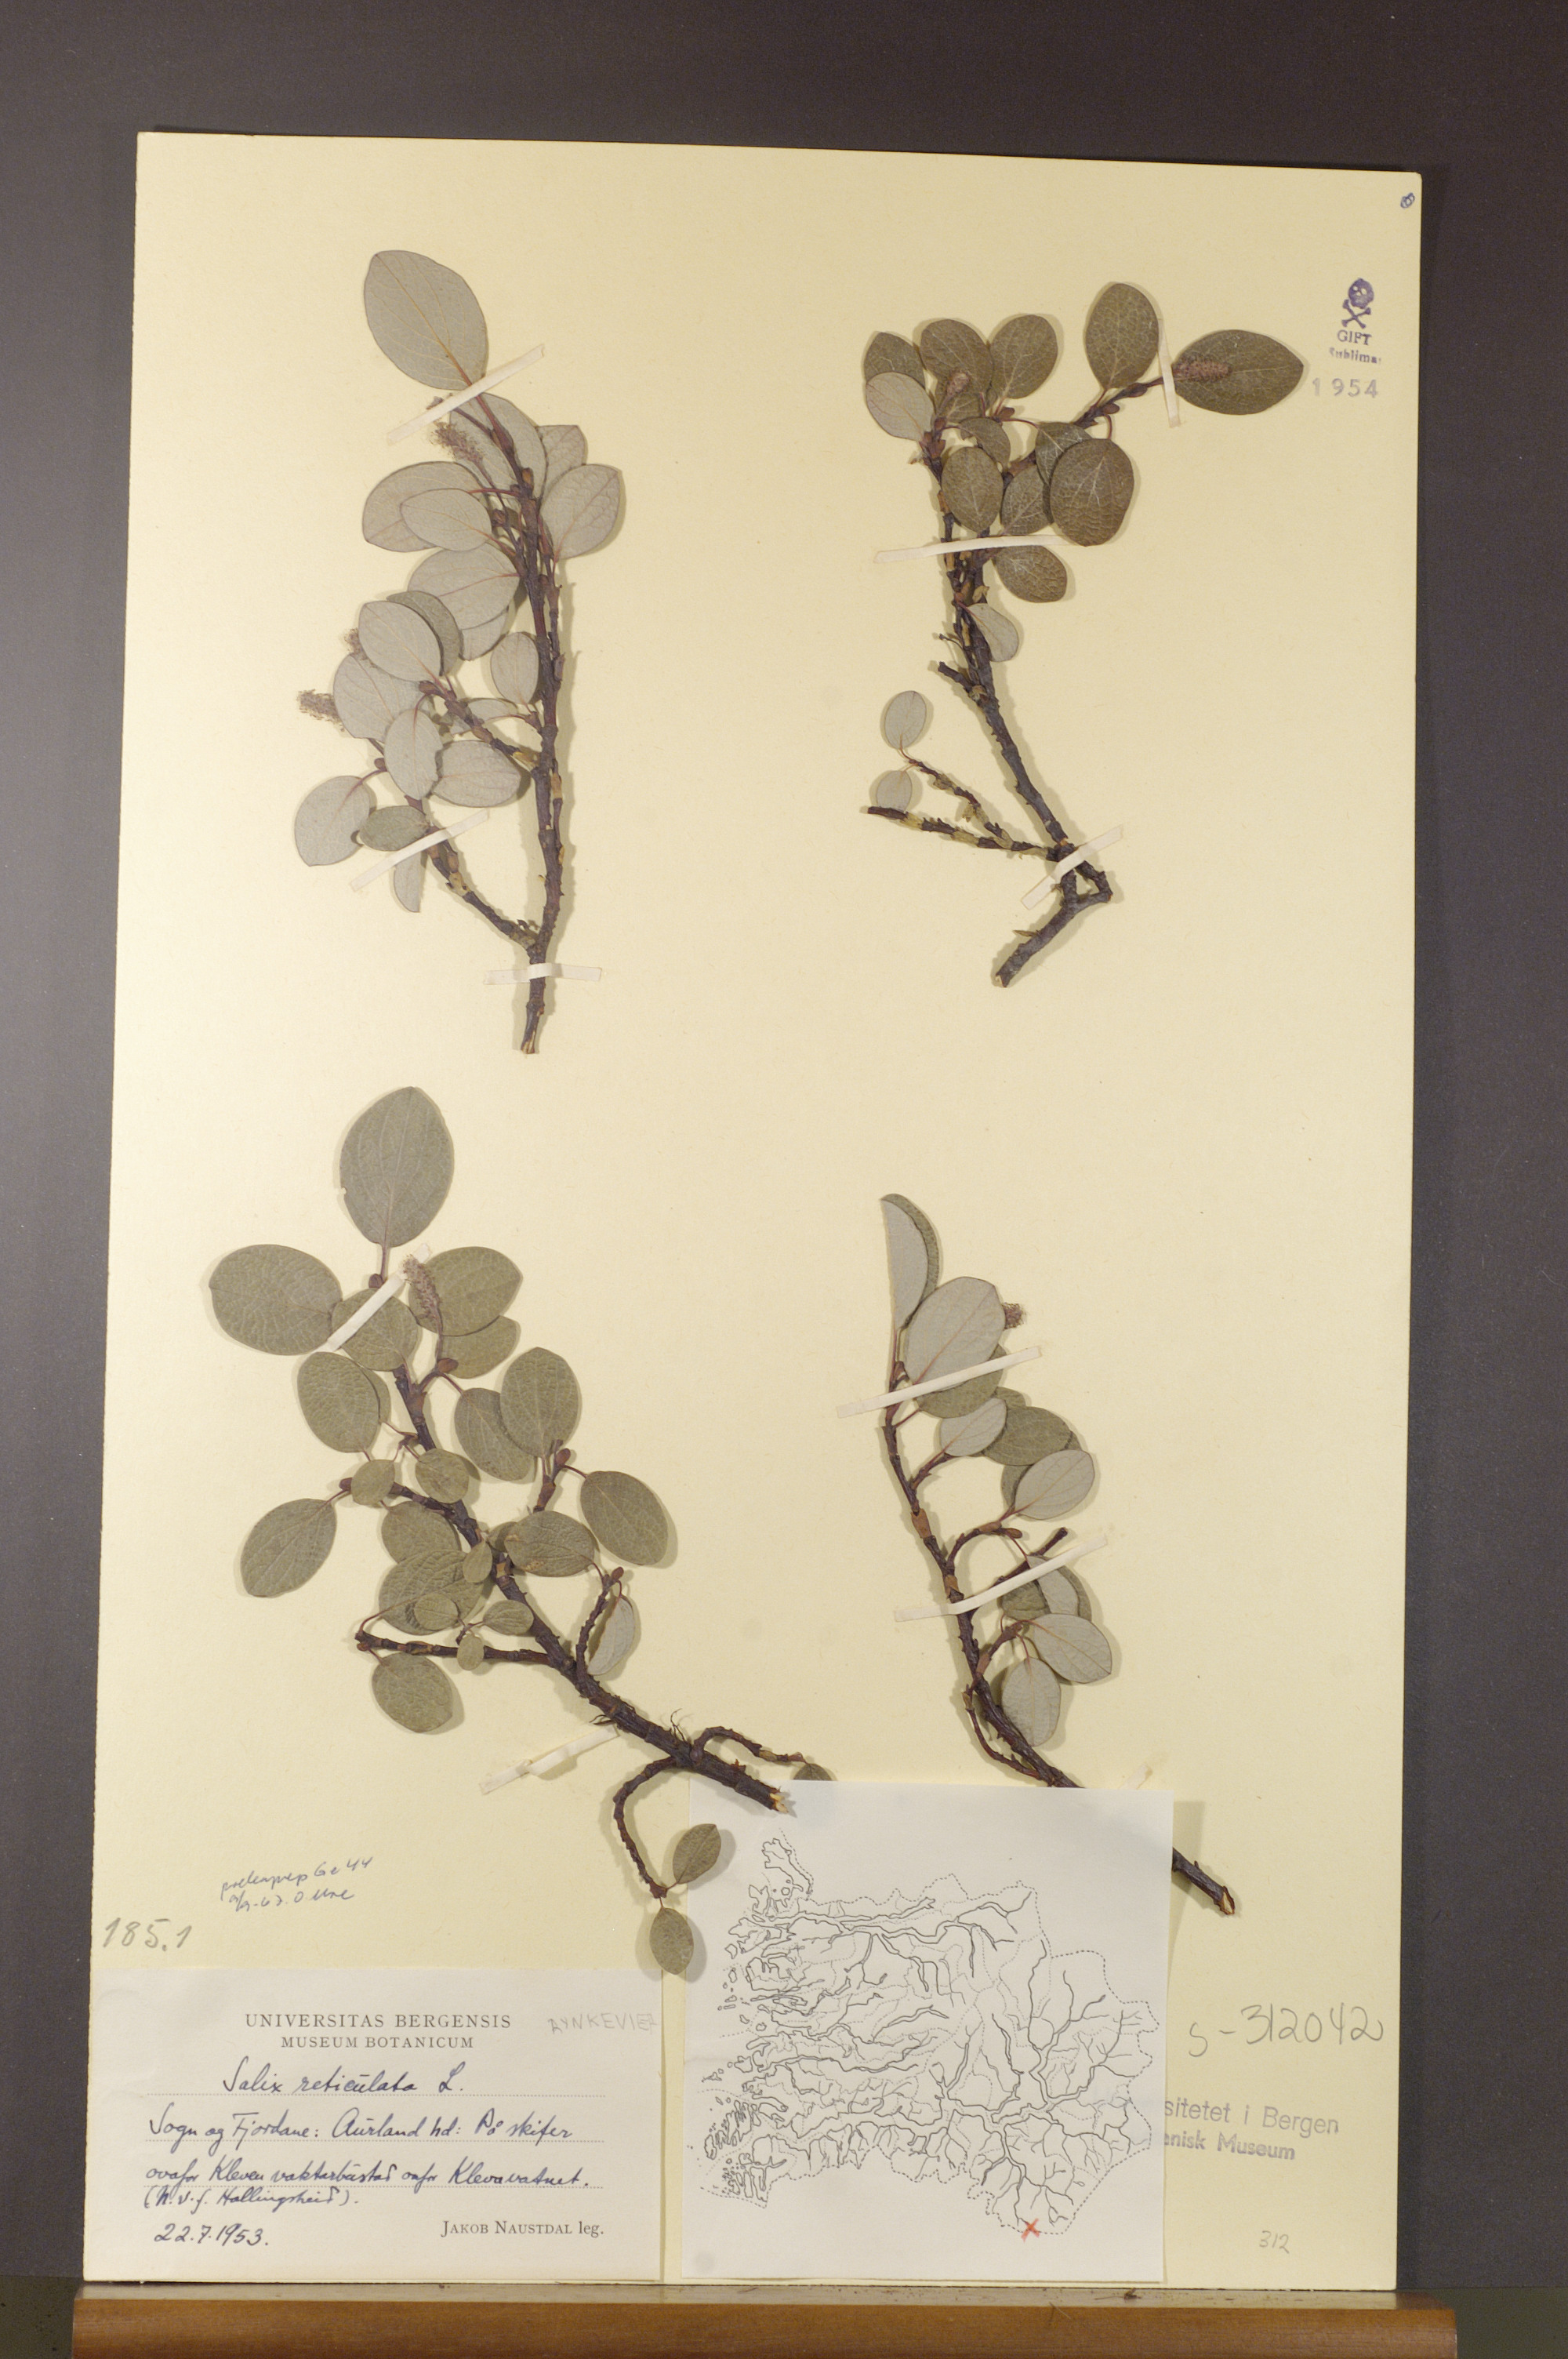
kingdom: Plantae
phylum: Tracheophyta
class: Magnoliopsida
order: Malpighiales
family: Salicaceae
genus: Salix
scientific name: Salix reticulata
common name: Net-leaved willow
